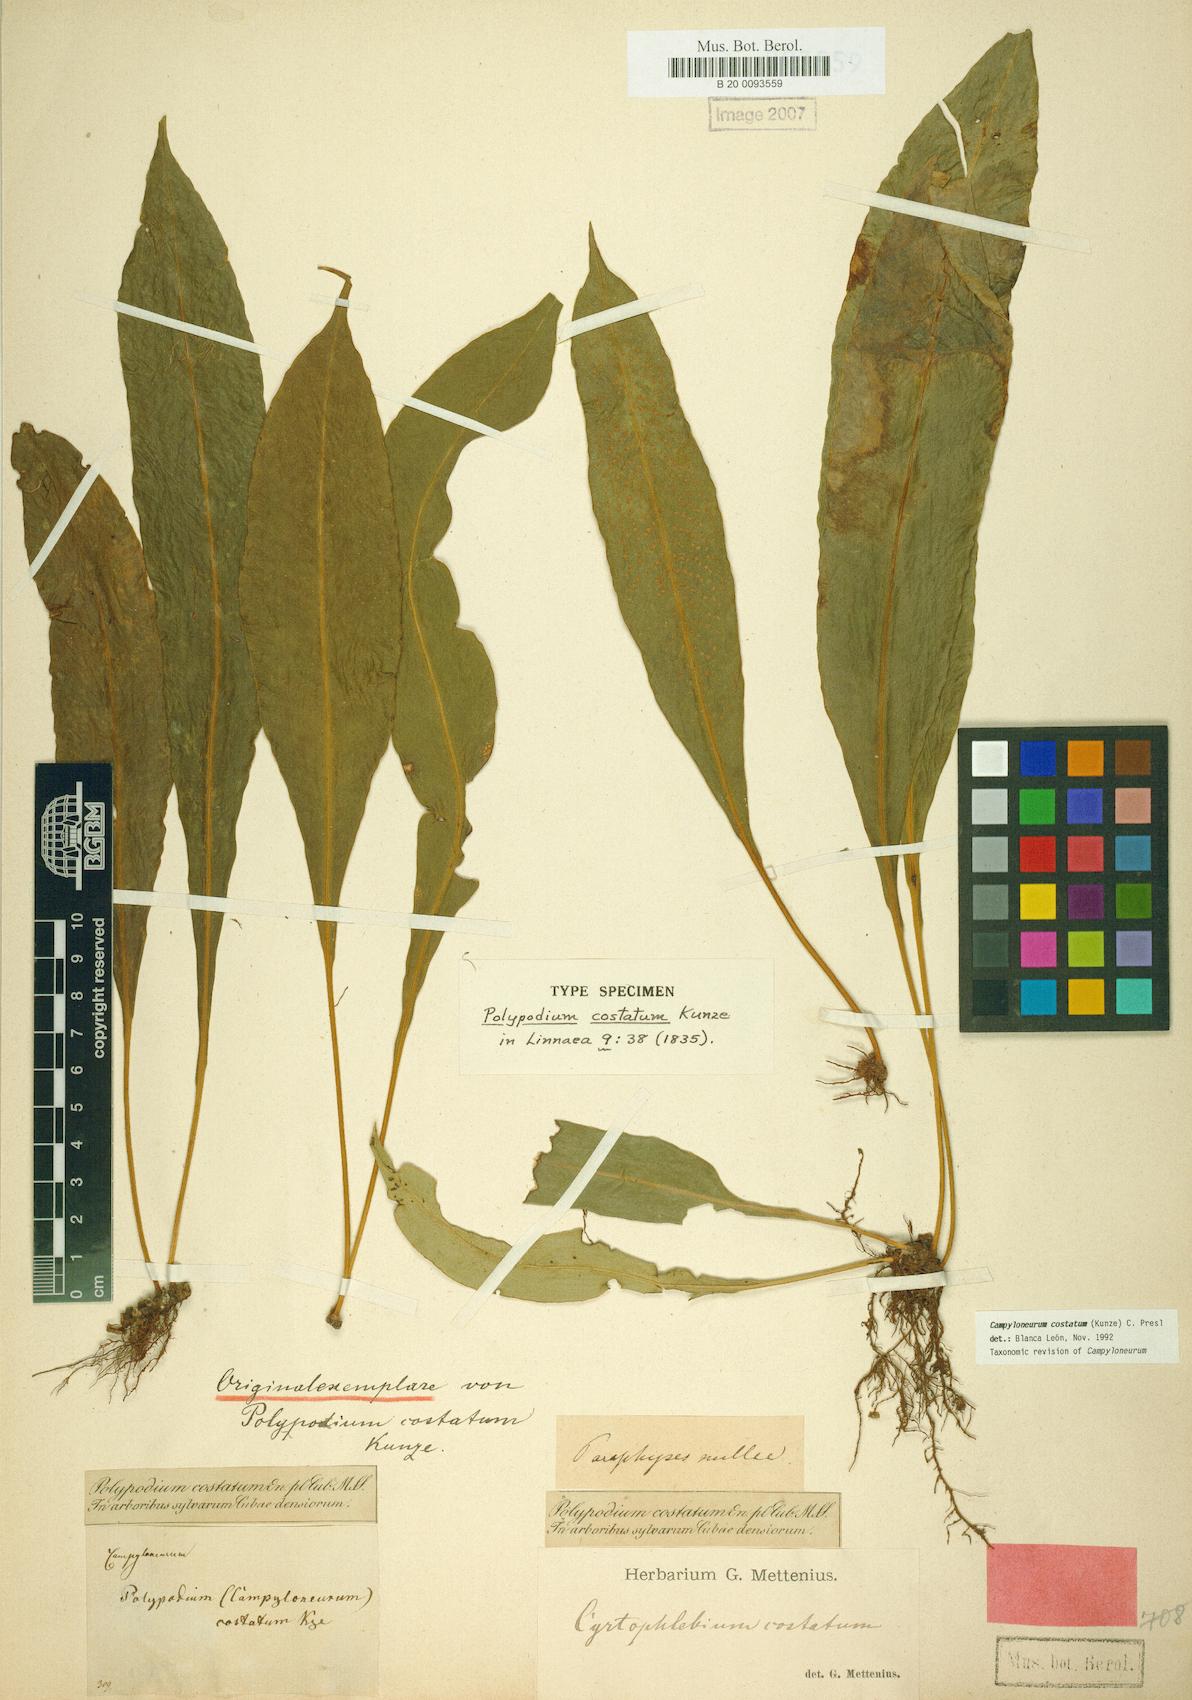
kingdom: Plantae
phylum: Tracheophyta
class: Polypodiopsida
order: Polypodiales
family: Polypodiaceae
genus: Campyloneurum
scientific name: Campyloneurum costatum
